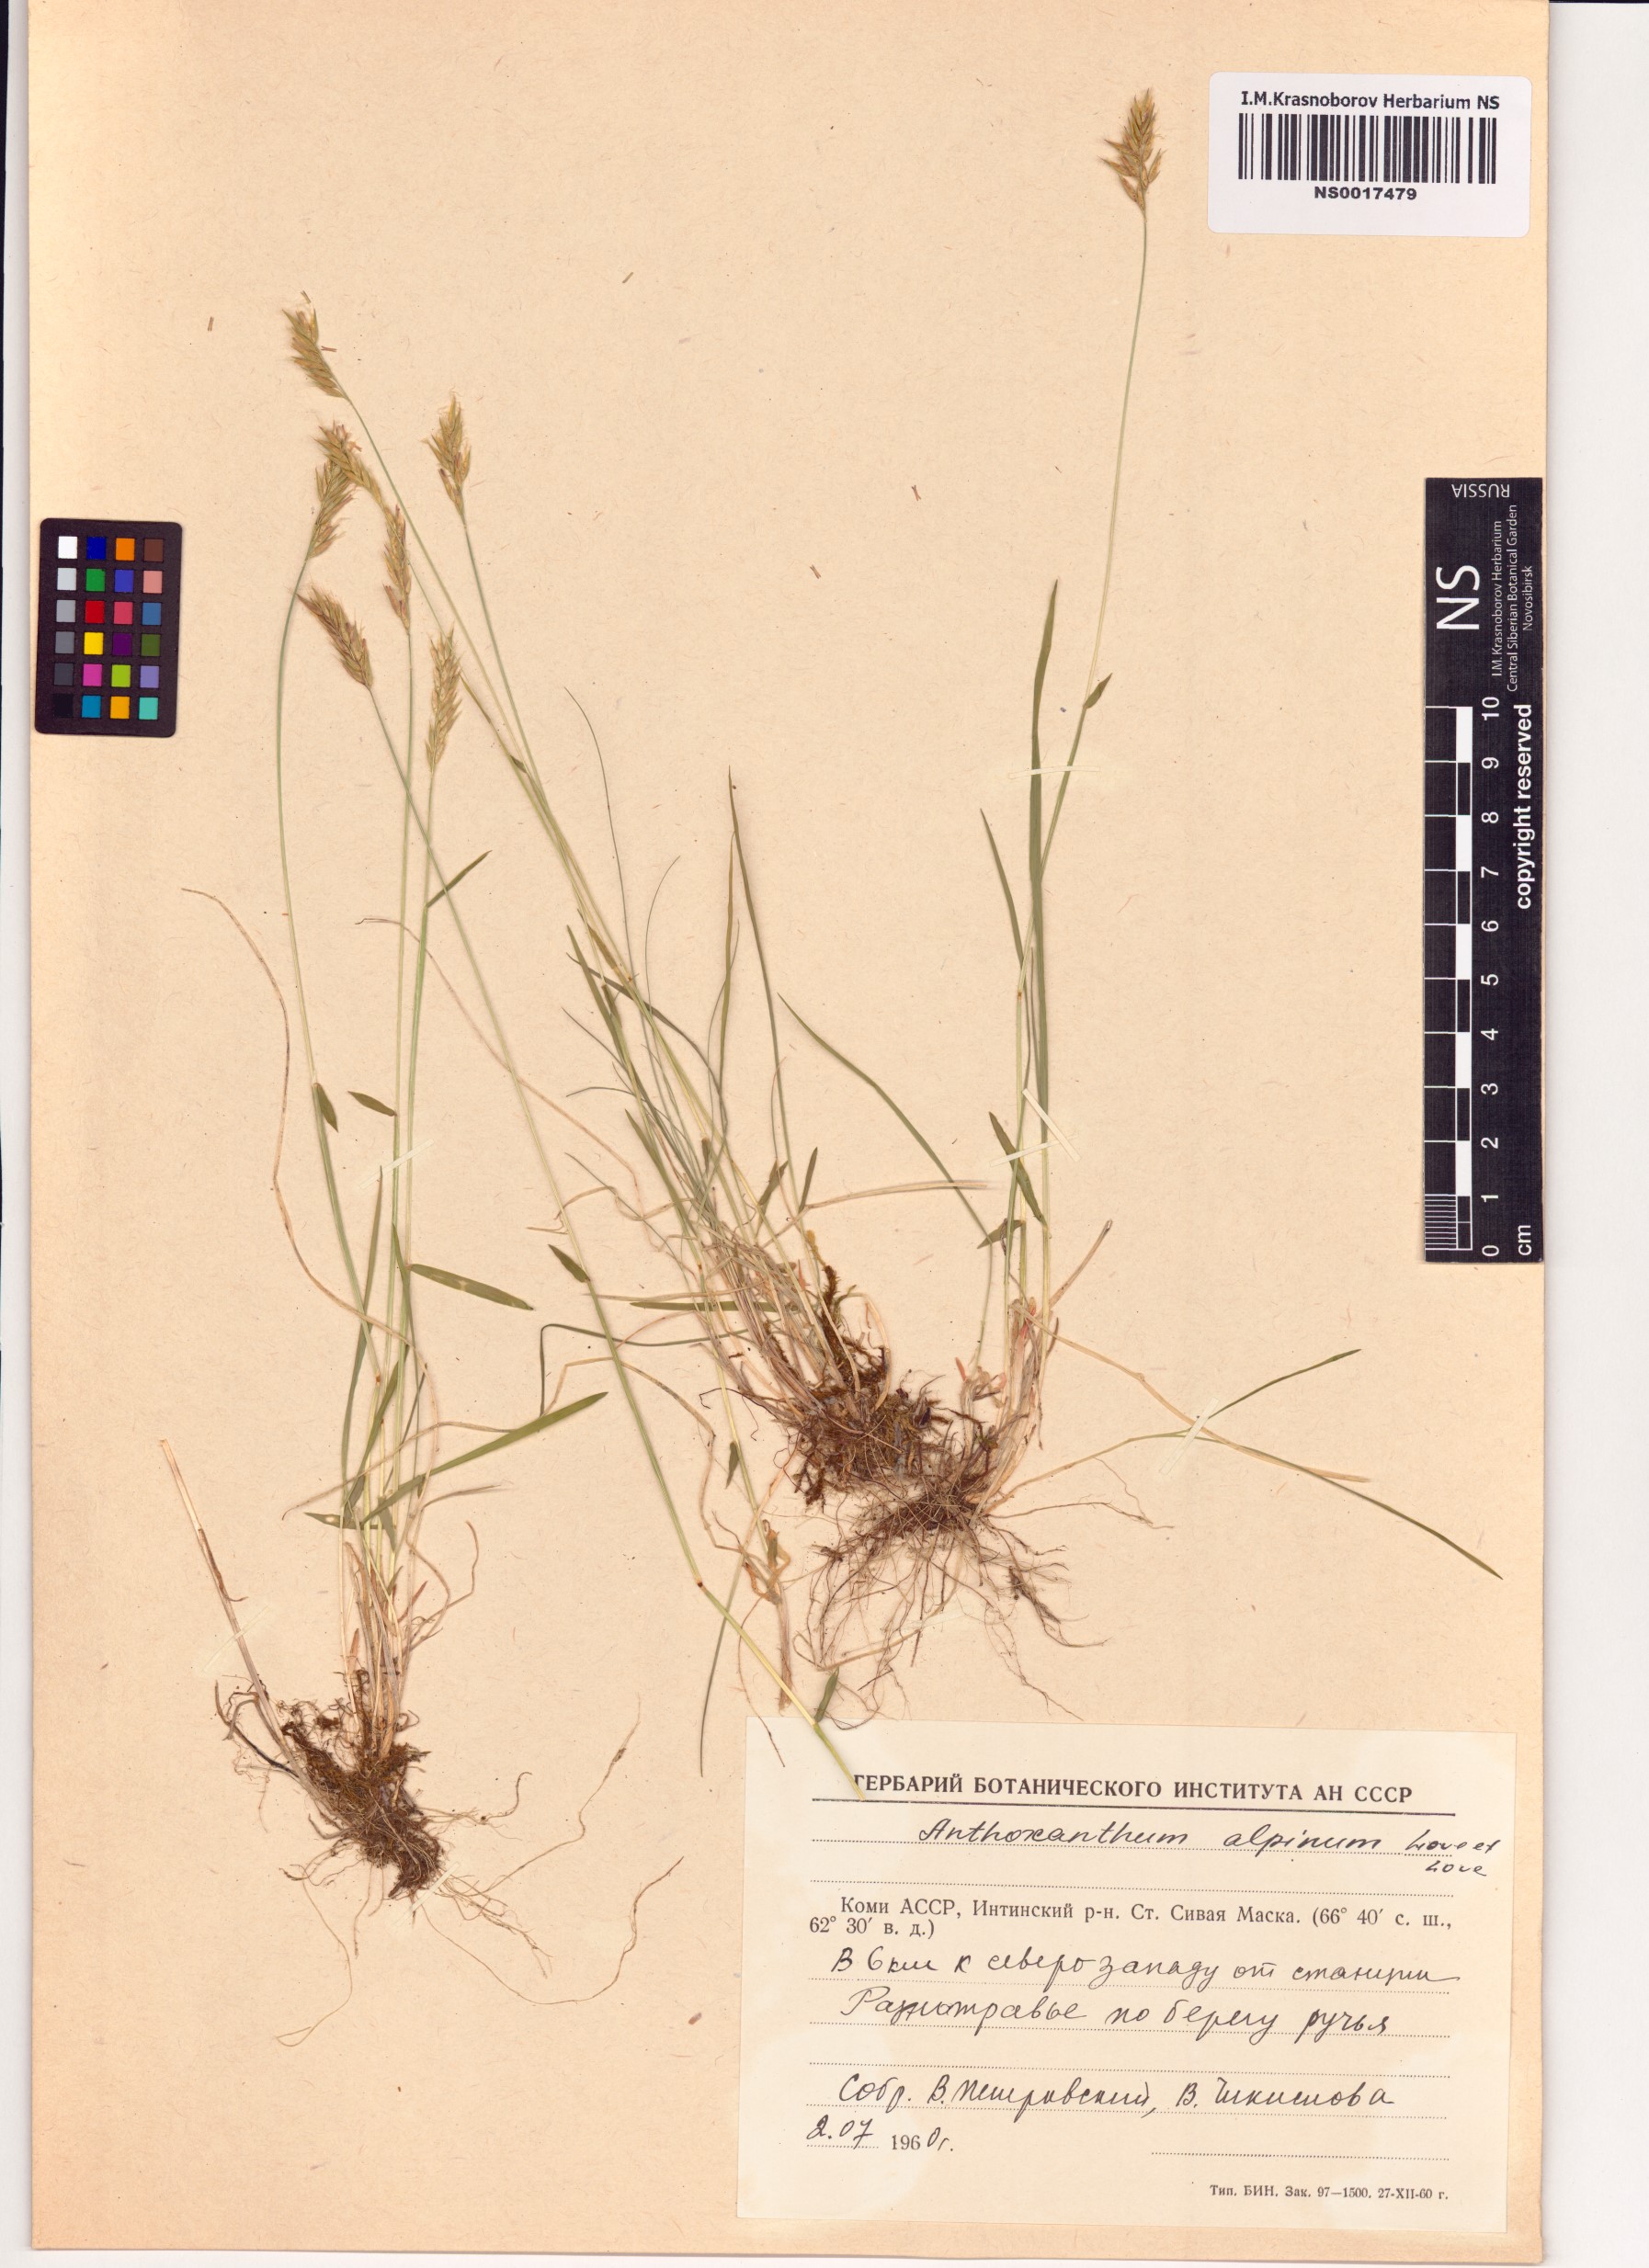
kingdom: Plantae
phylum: Tracheophyta
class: Liliopsida
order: Poales
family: Poaceae
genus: Anthoxanthum
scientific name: Anthoxanthum nipponicum
